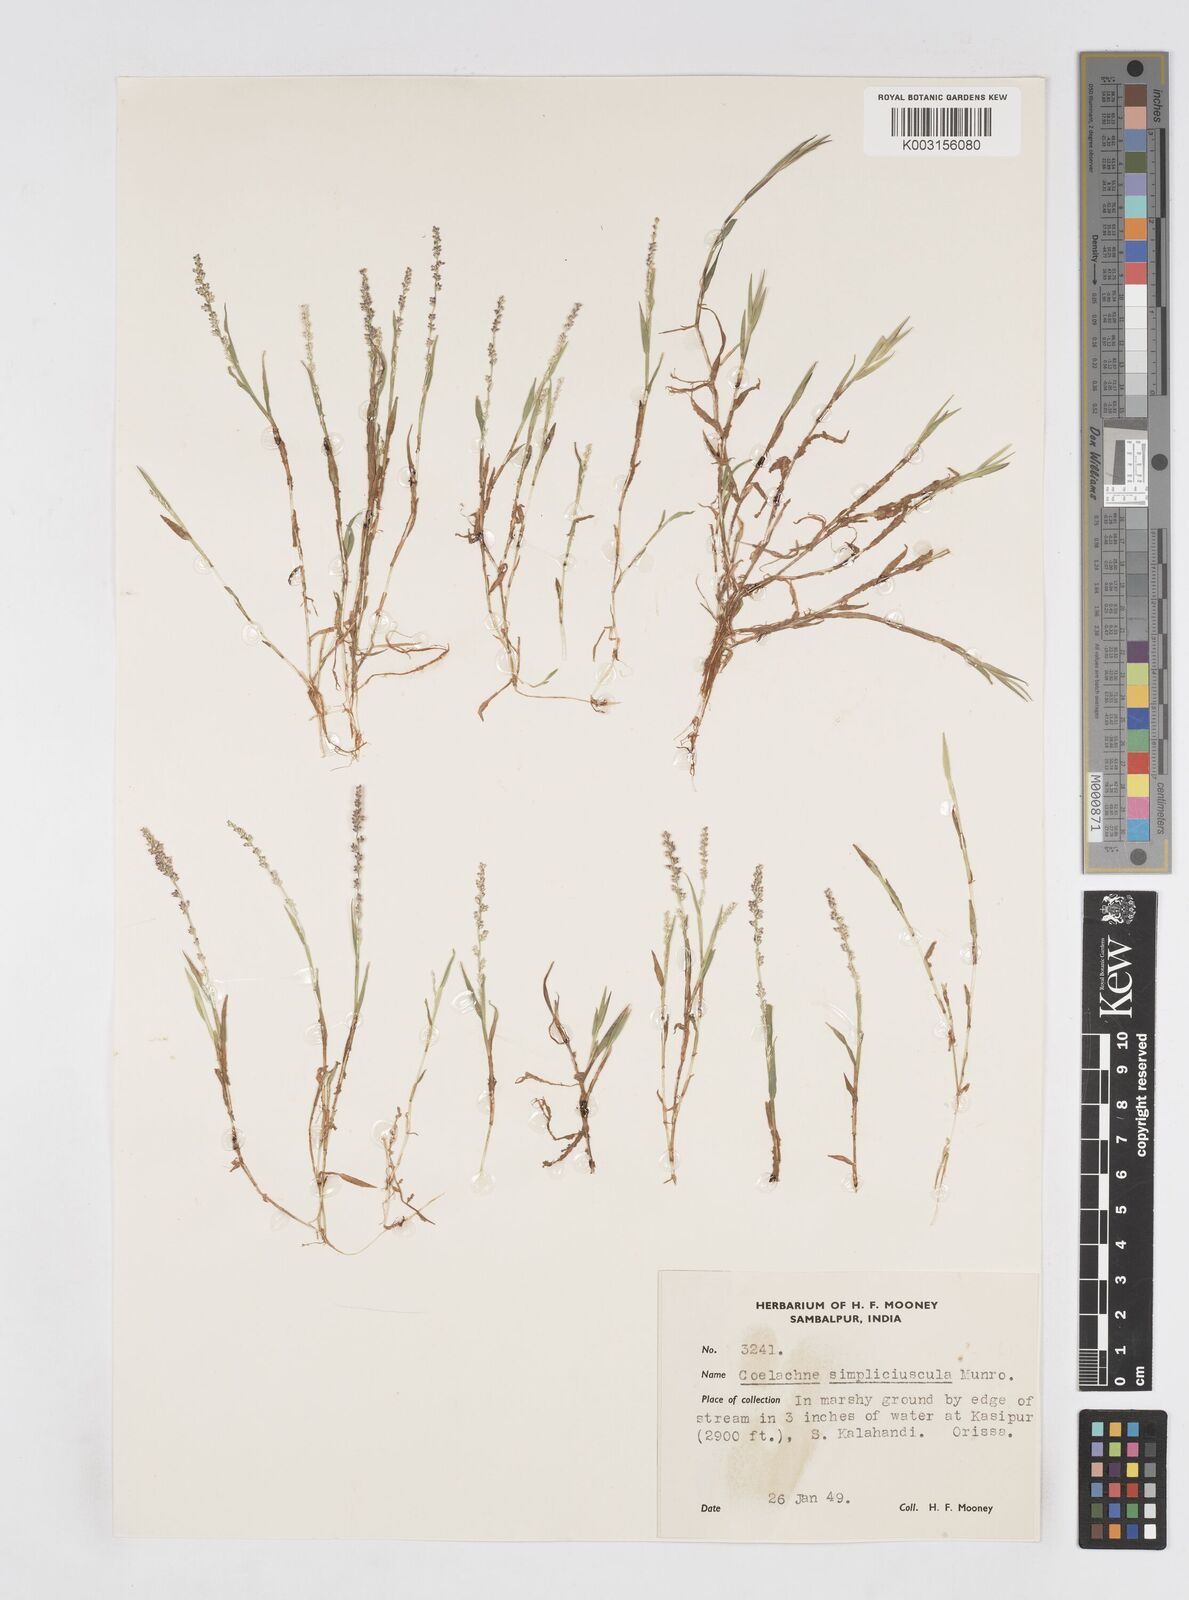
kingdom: Plantae
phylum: Tracheophyta
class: Liliopsida
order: Poales
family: Poaceae
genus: Coelachne
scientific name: Coelachne simpliciuscula
